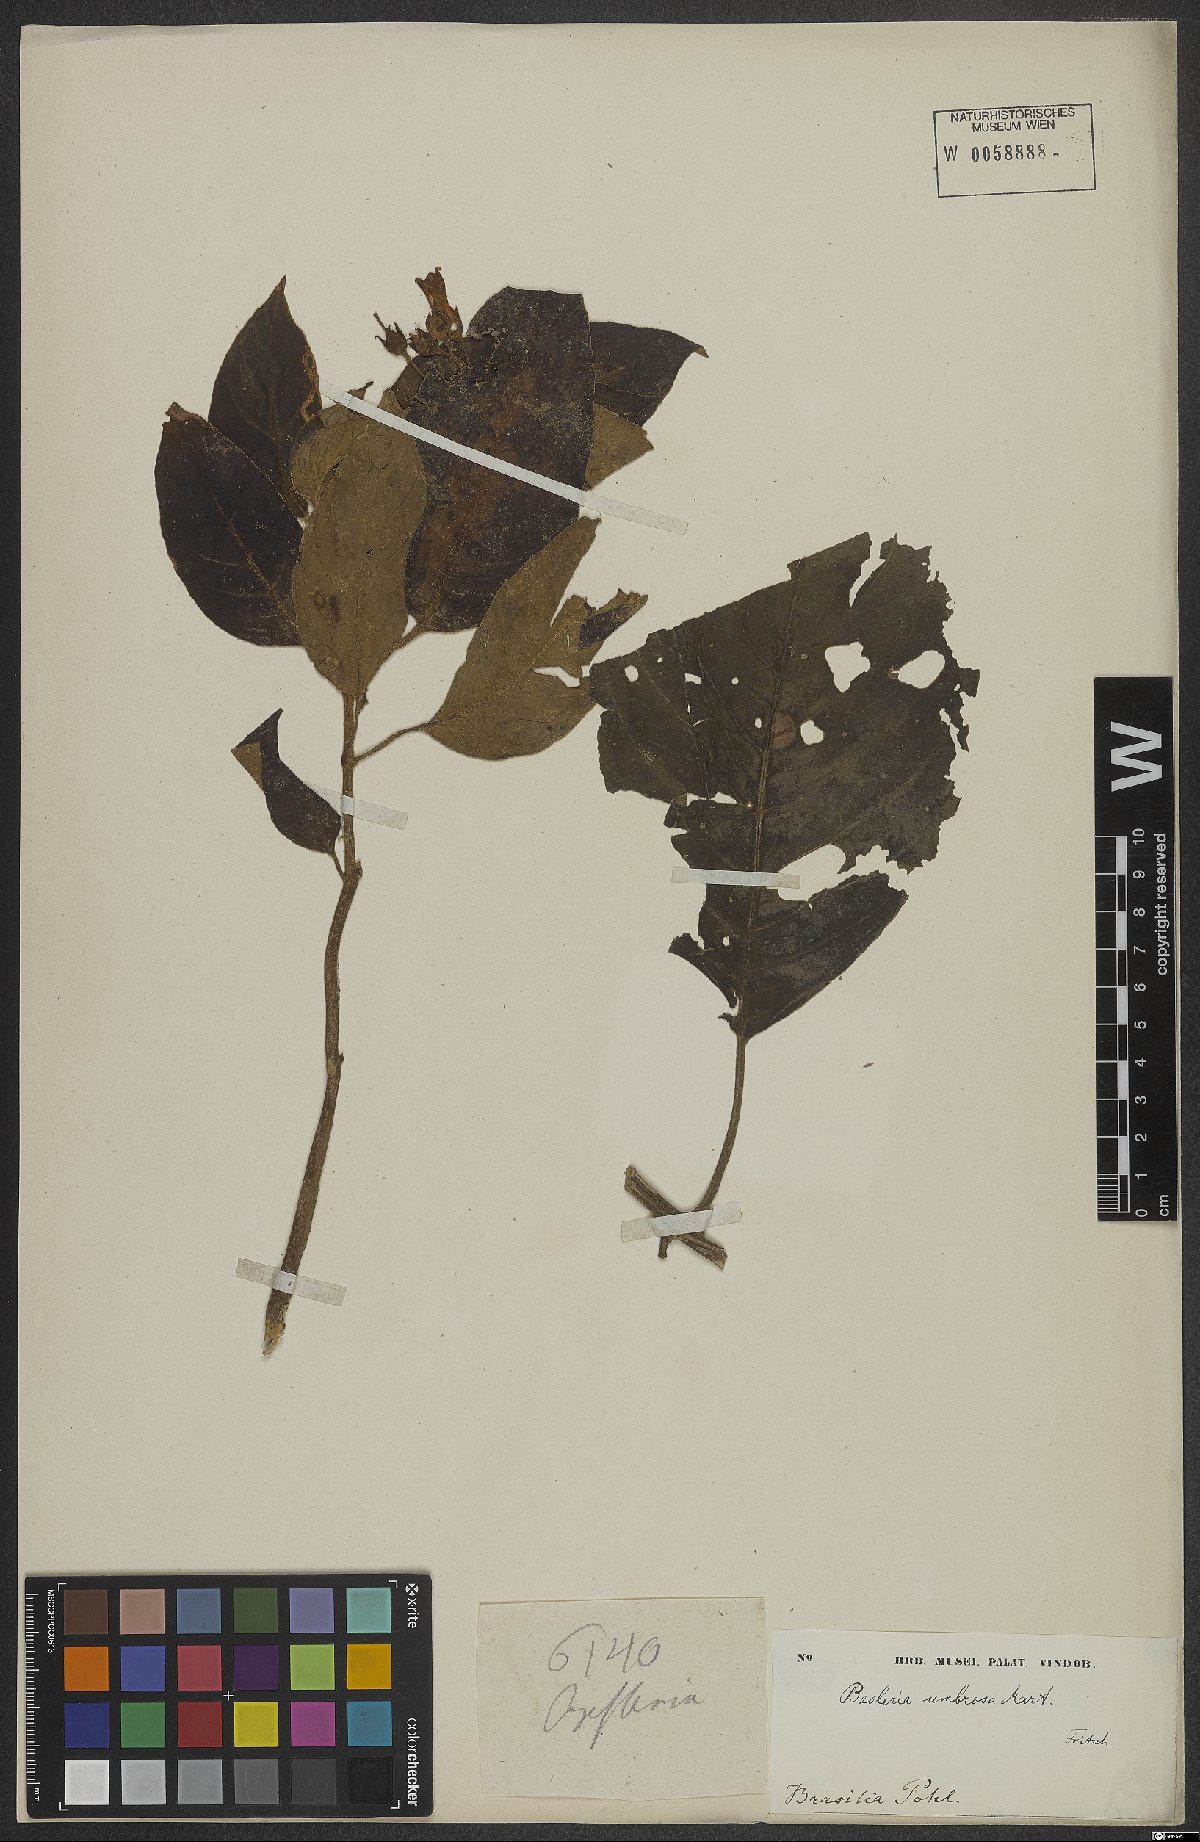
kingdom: Plantae
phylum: Tracheophyta
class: Magnoliopsida
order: Lamiales
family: Gesneriaceae
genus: Besleria
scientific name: Besleria umbrosa
